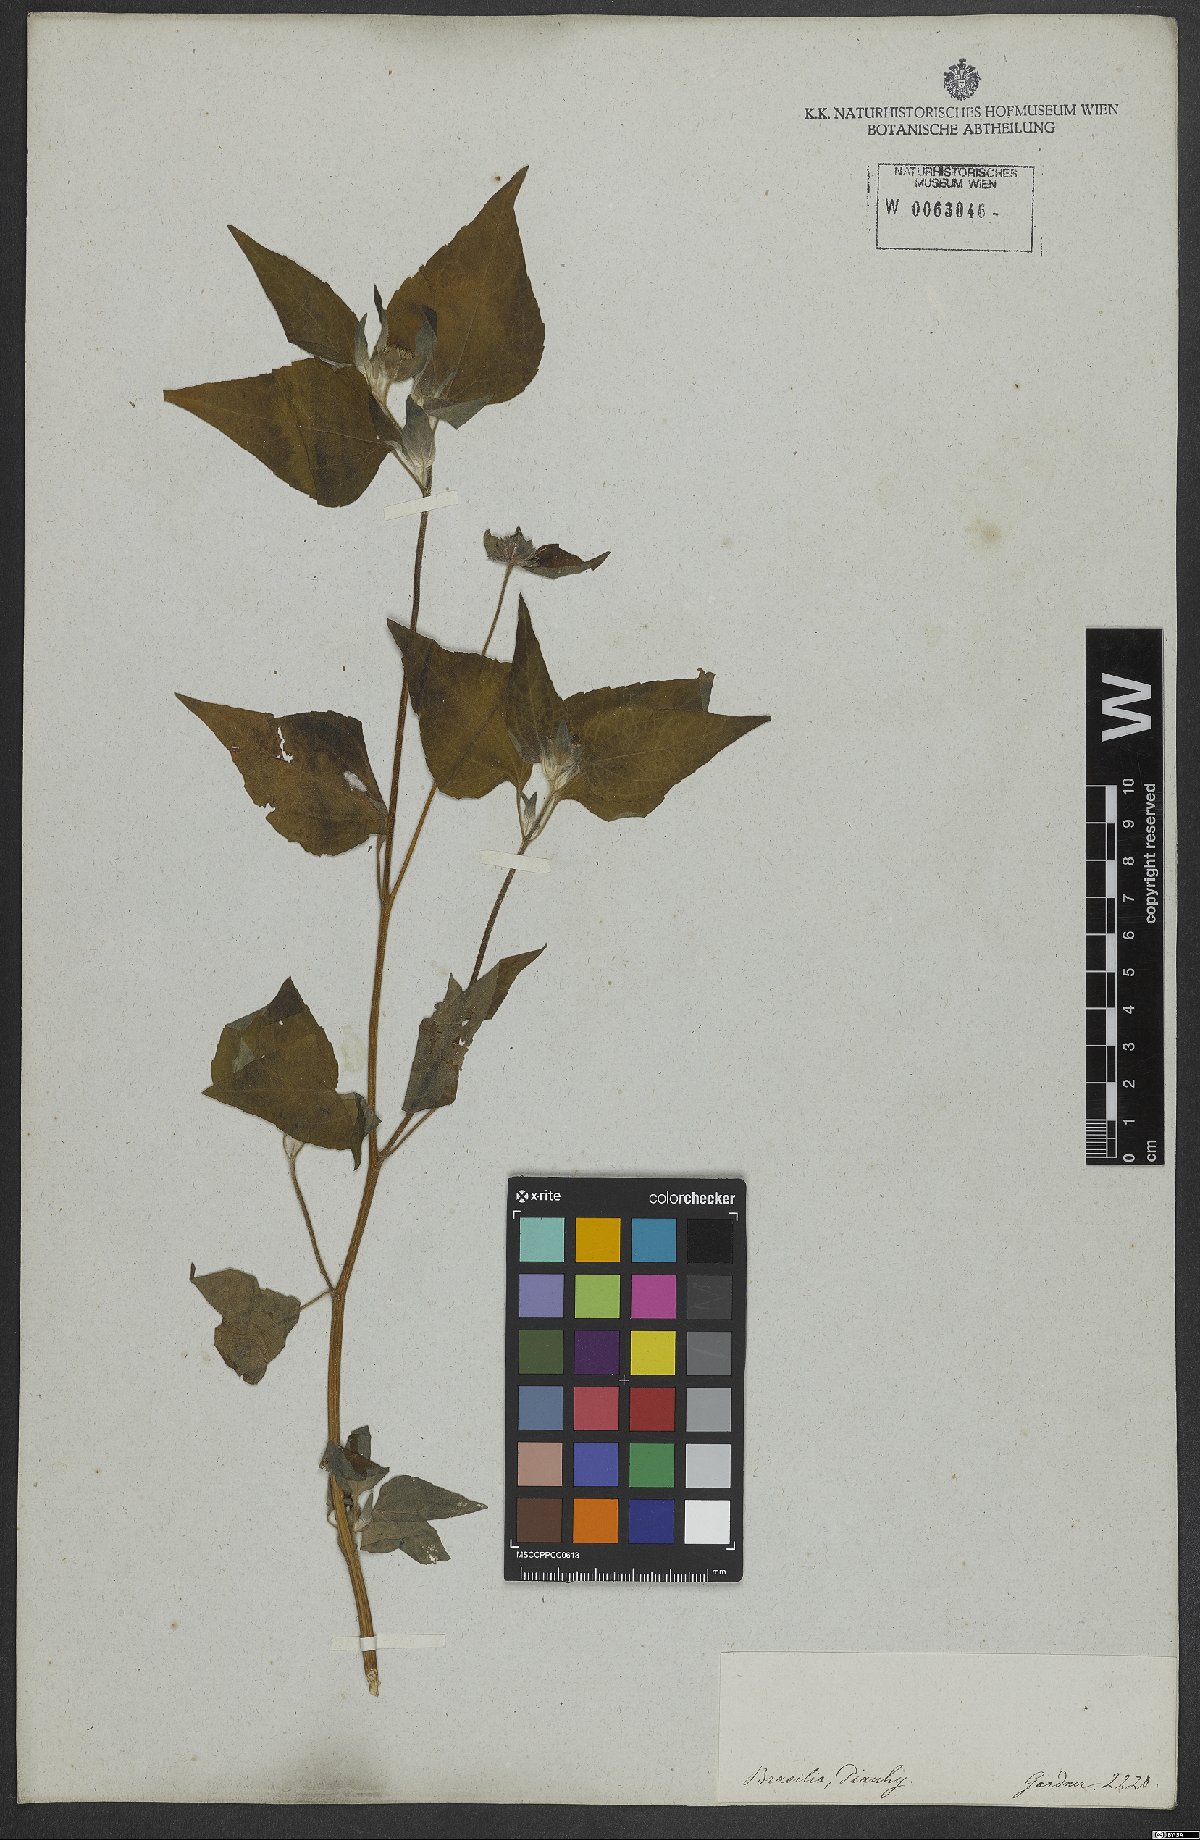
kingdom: Plantae
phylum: Tracheophyta
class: Magnoliopsida
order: Asterales
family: Asteraceae
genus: Eleutheranthera
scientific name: Eleutheranthera
